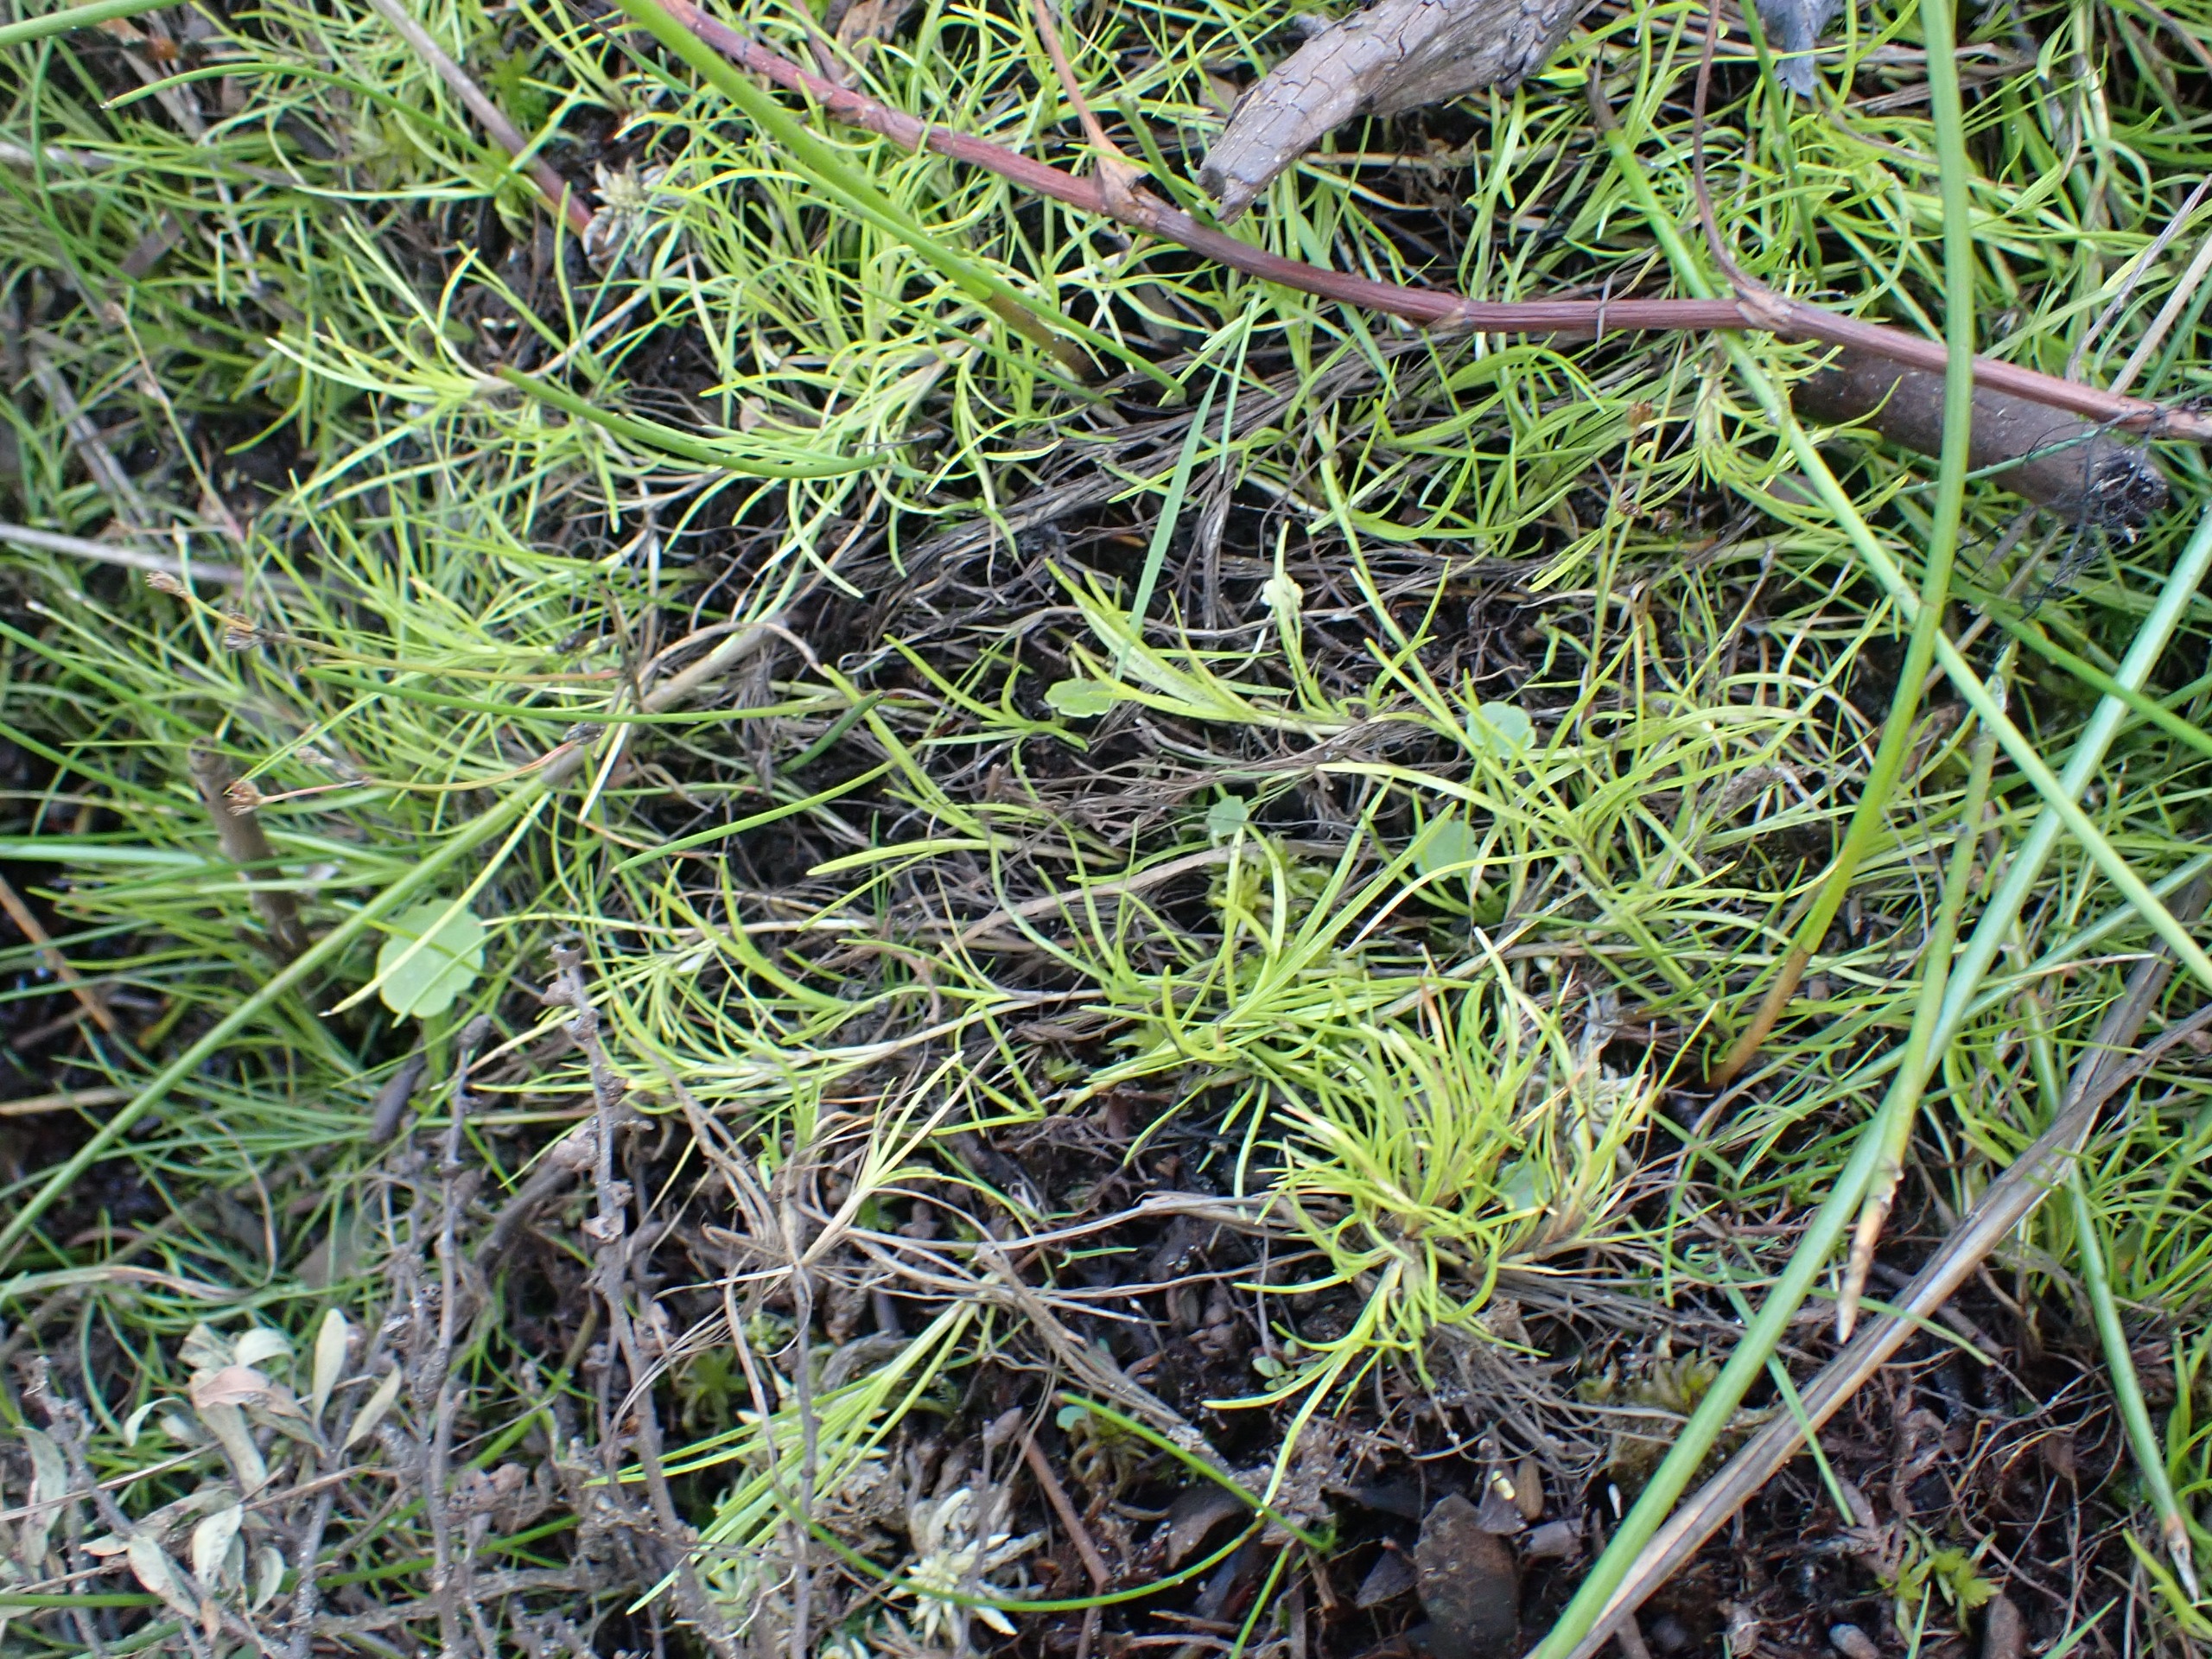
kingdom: Plantae
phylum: Tracheophyta
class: Liliopsida
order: Poales
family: Cyperaceae
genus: Isolepis
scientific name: Isolepis fluitans
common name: Flydende kogleaks
